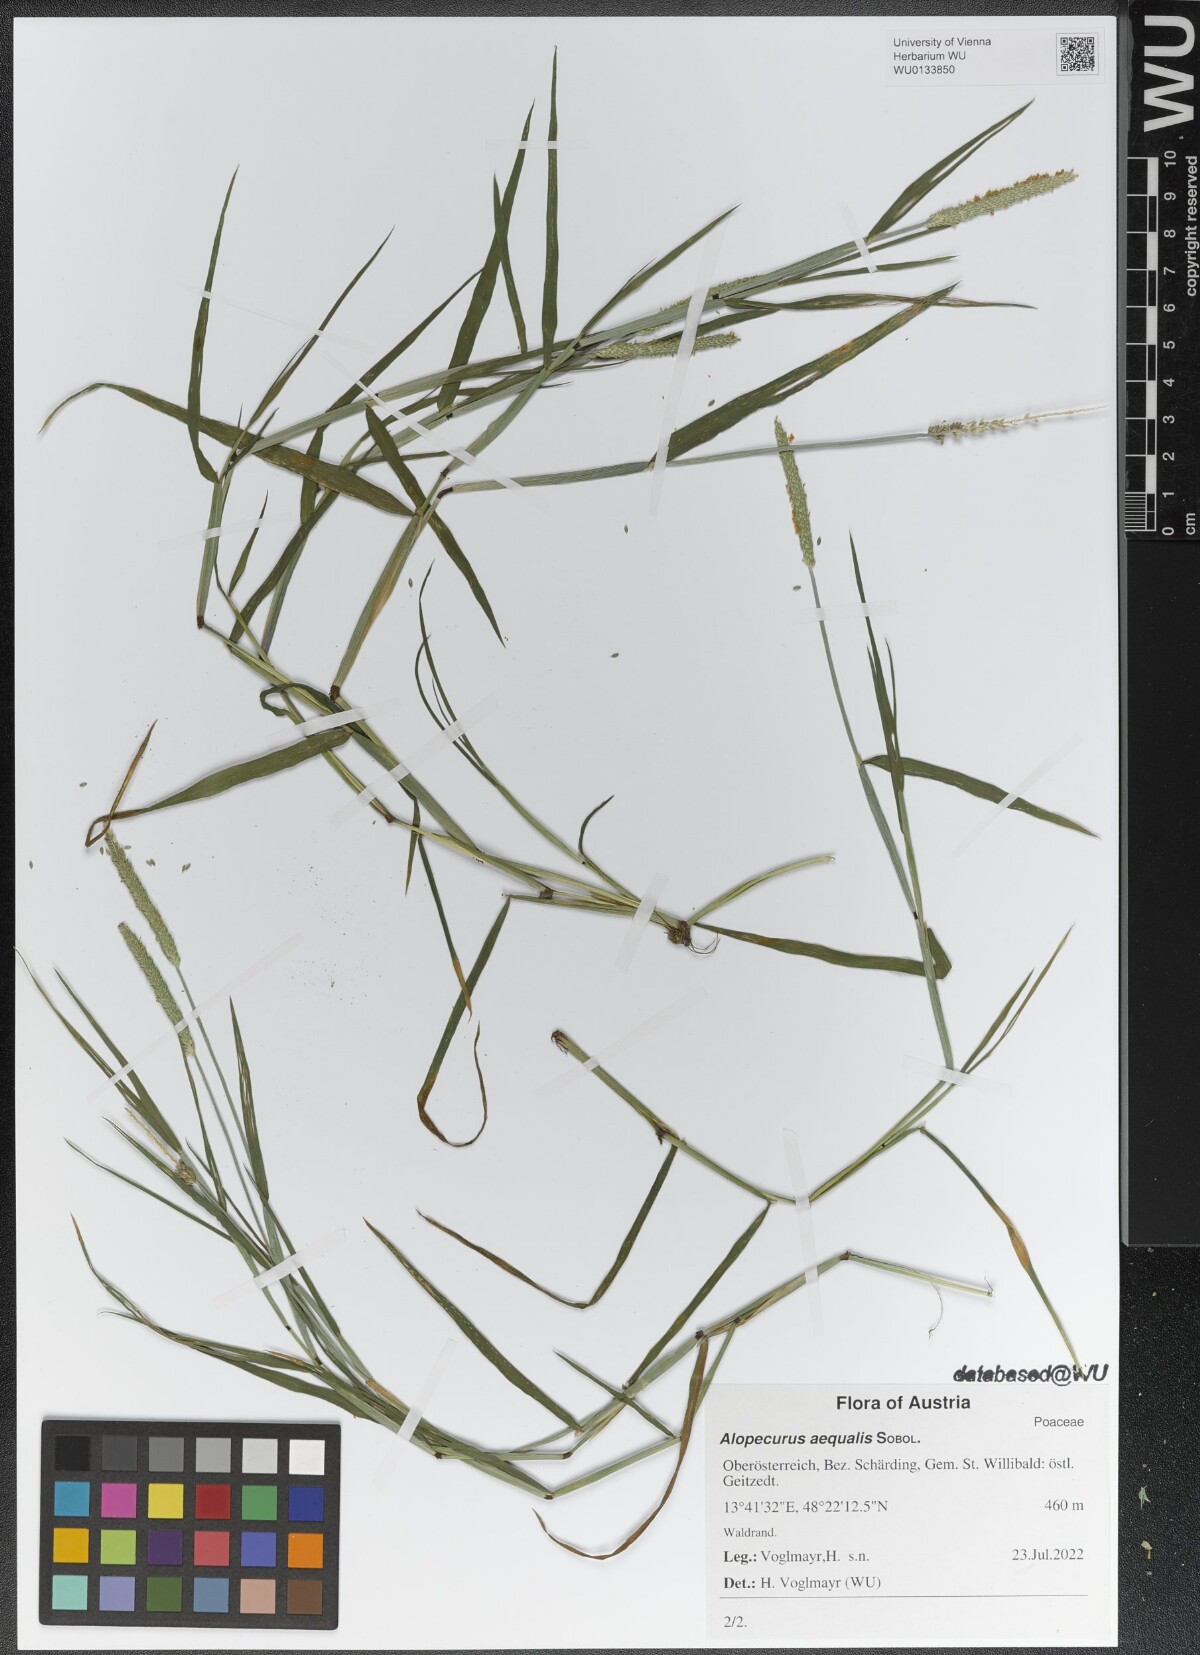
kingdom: Plantae
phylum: Tracheophyta
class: Liliopsida
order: Poales
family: Poaceae
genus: Alopecurus
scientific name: Alopecurus aequalis
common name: Orange foxtail
